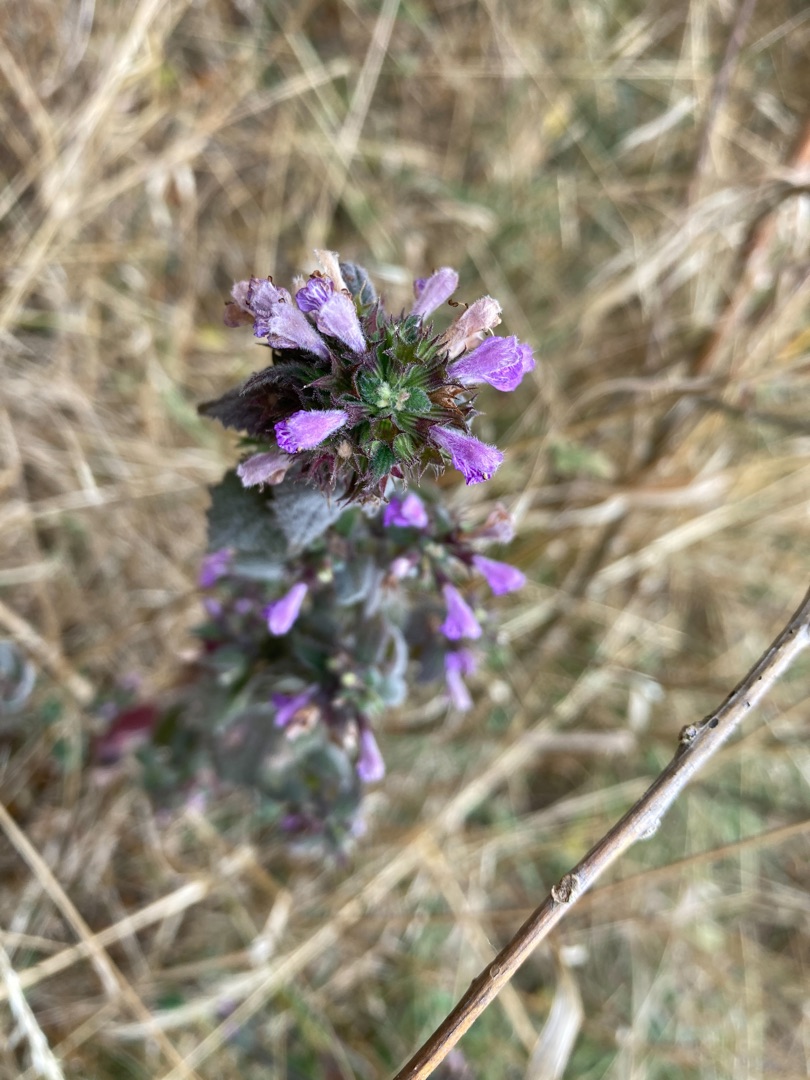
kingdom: Plantae
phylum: Tracheophyta
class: Magnoliopsida
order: Lamiales
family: Lamiaceae
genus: Ballota
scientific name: Ballota nigra
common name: Tandbæger
